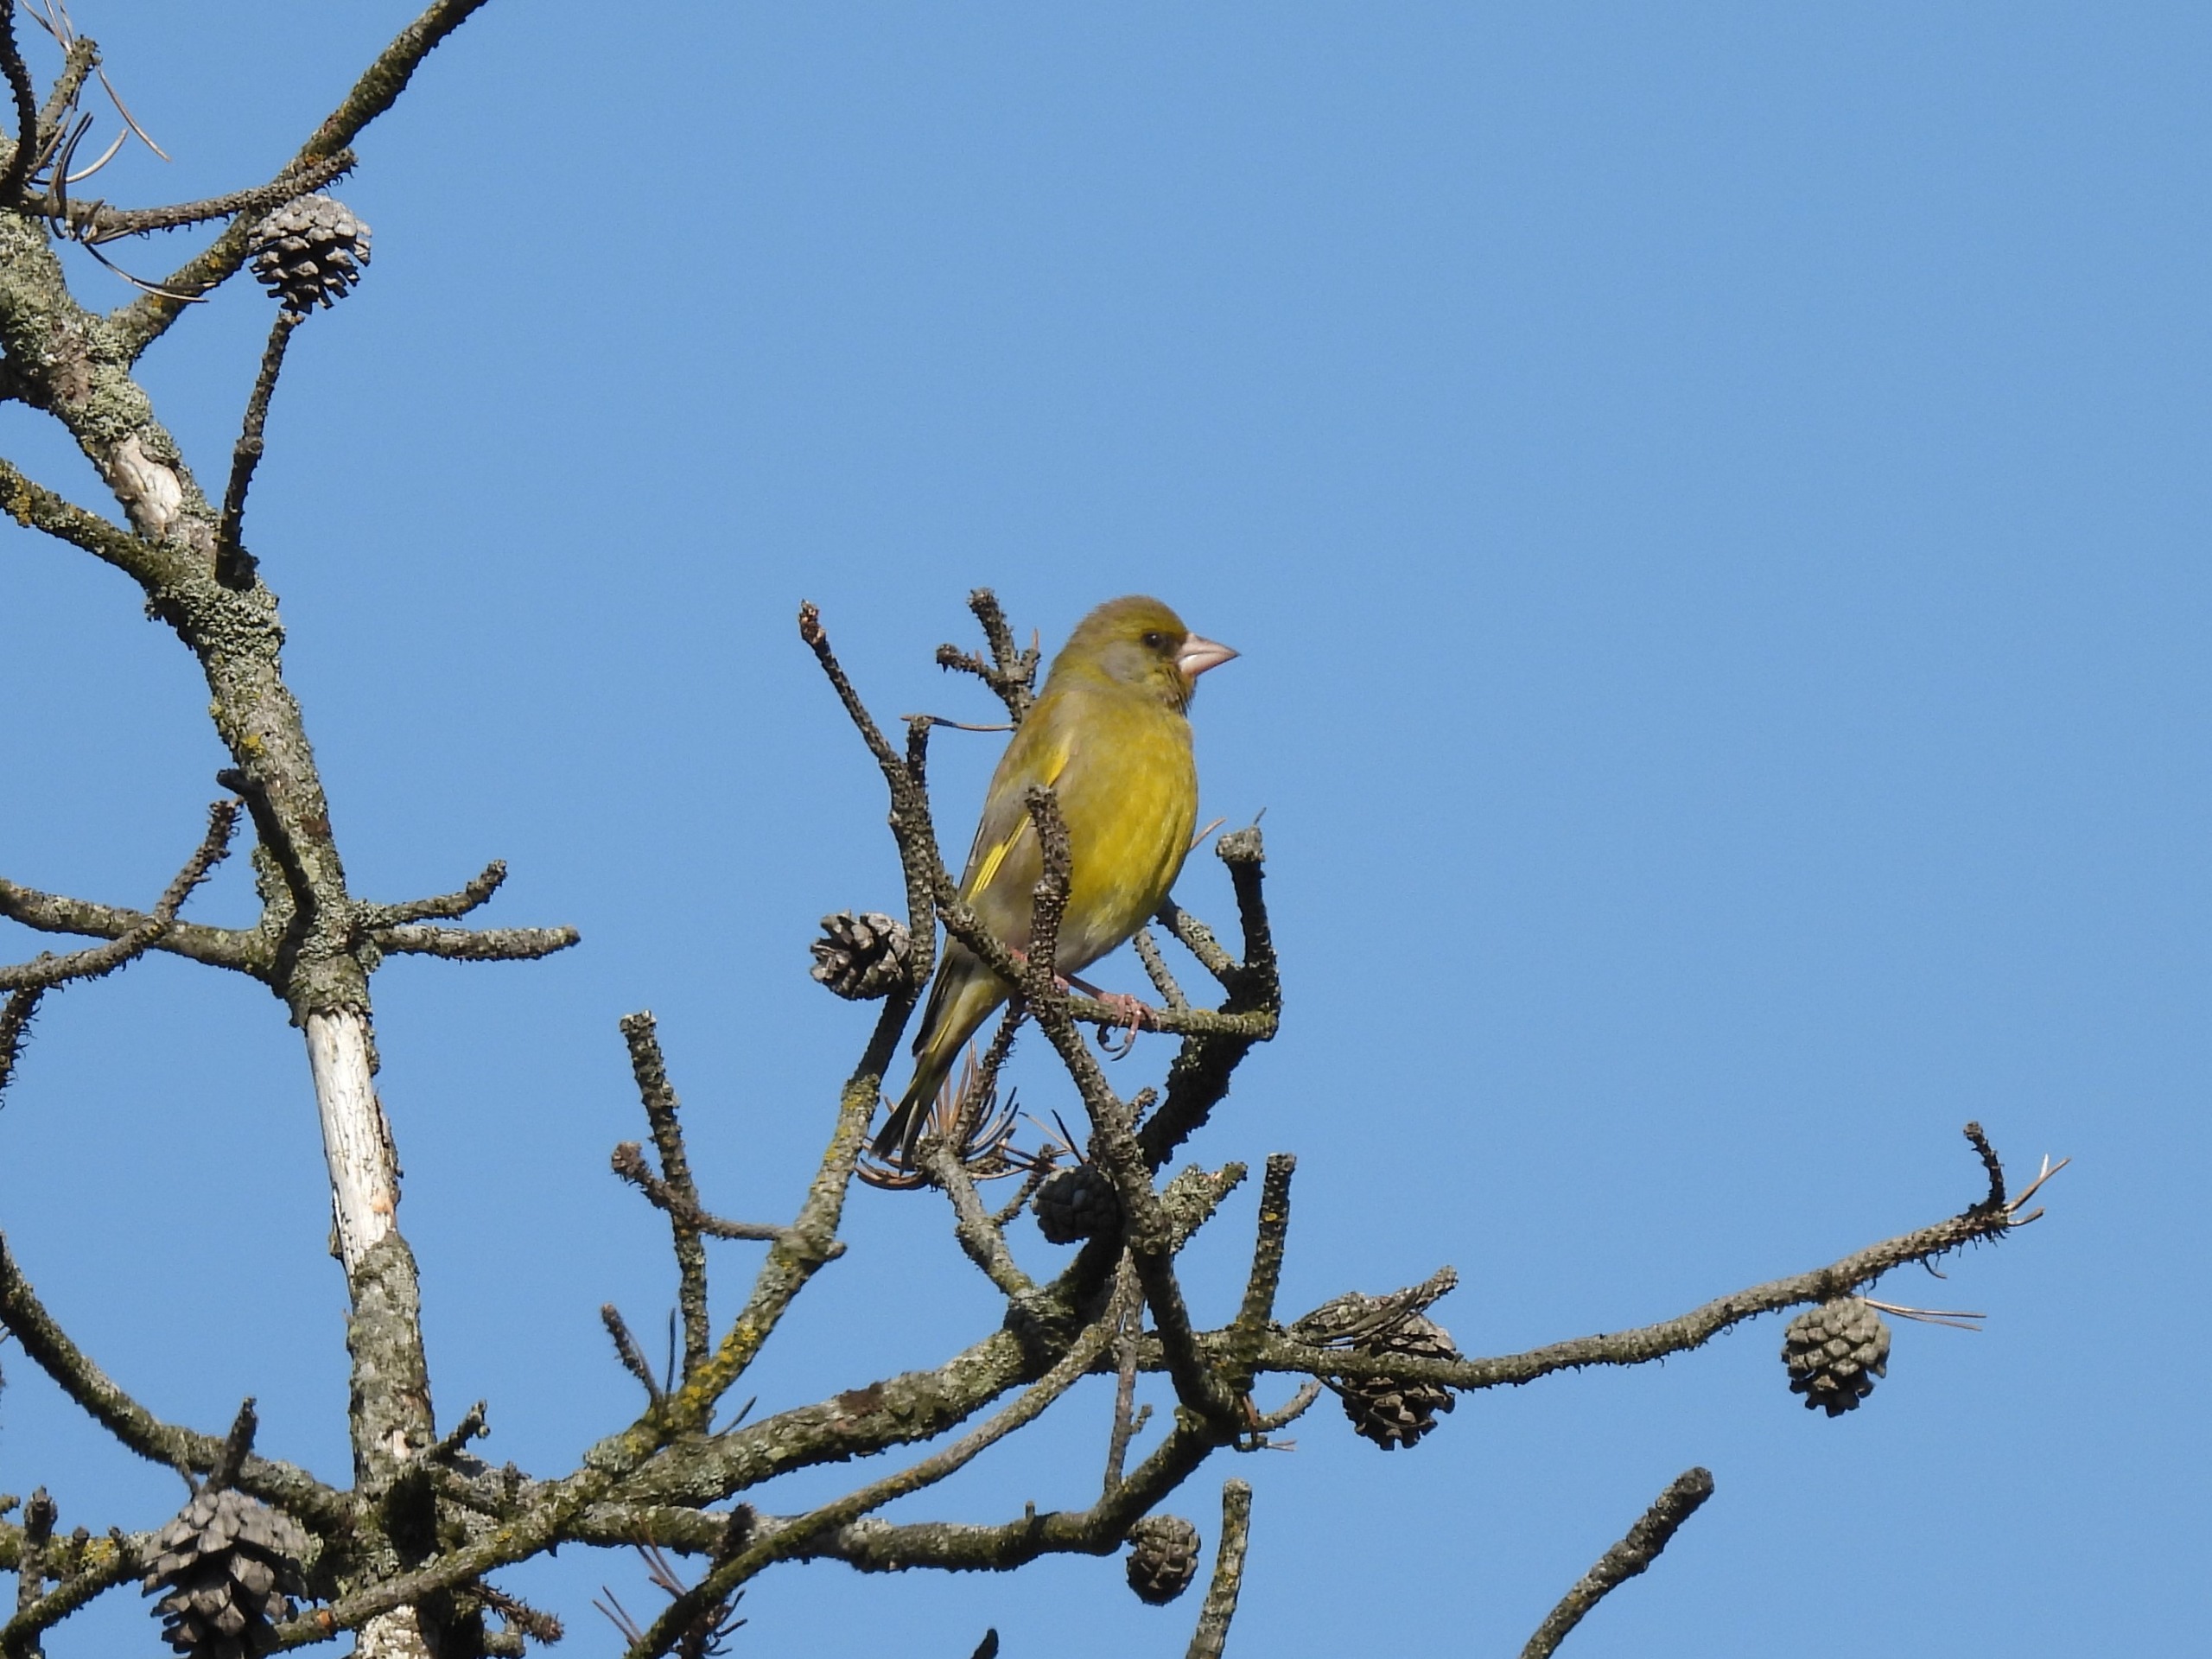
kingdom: Plantae
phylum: Tracheophyta
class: Liliopsida
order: Poales
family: Poaceae
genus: Chloris
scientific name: Chloris chloris
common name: Grønirisk
